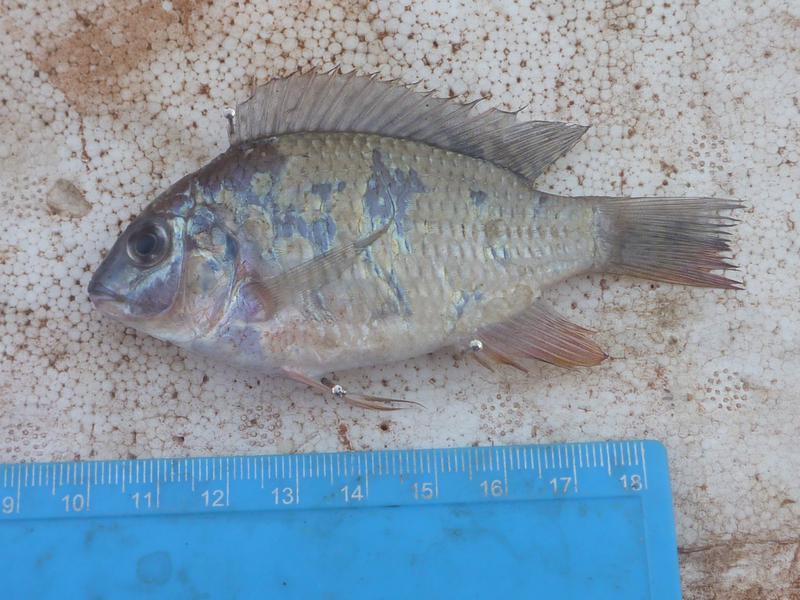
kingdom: Animalia
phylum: Chordata
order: Perciformes
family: Cichlidae
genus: Coptodon
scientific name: Coptodon rendalli
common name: Redbreast tilapia
